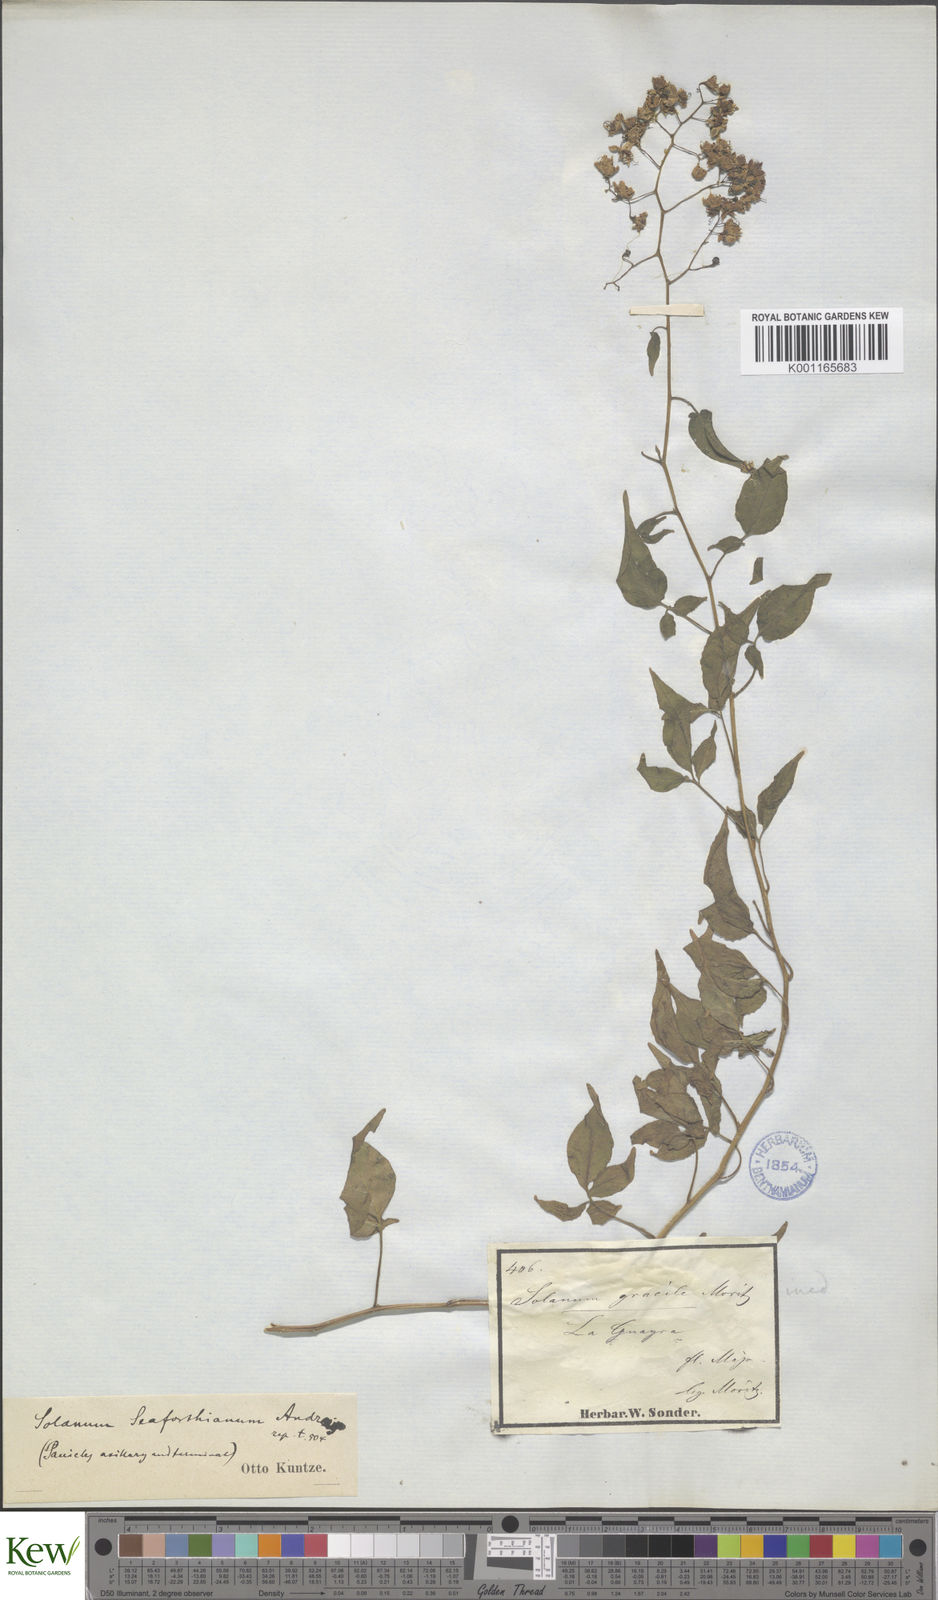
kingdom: Plantae
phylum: Tracheophyta
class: Magnoliopsida
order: Solanales
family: Solanaceae
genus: Solanum
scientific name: Solanum seaforthianum
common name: Brazilian nightshade
